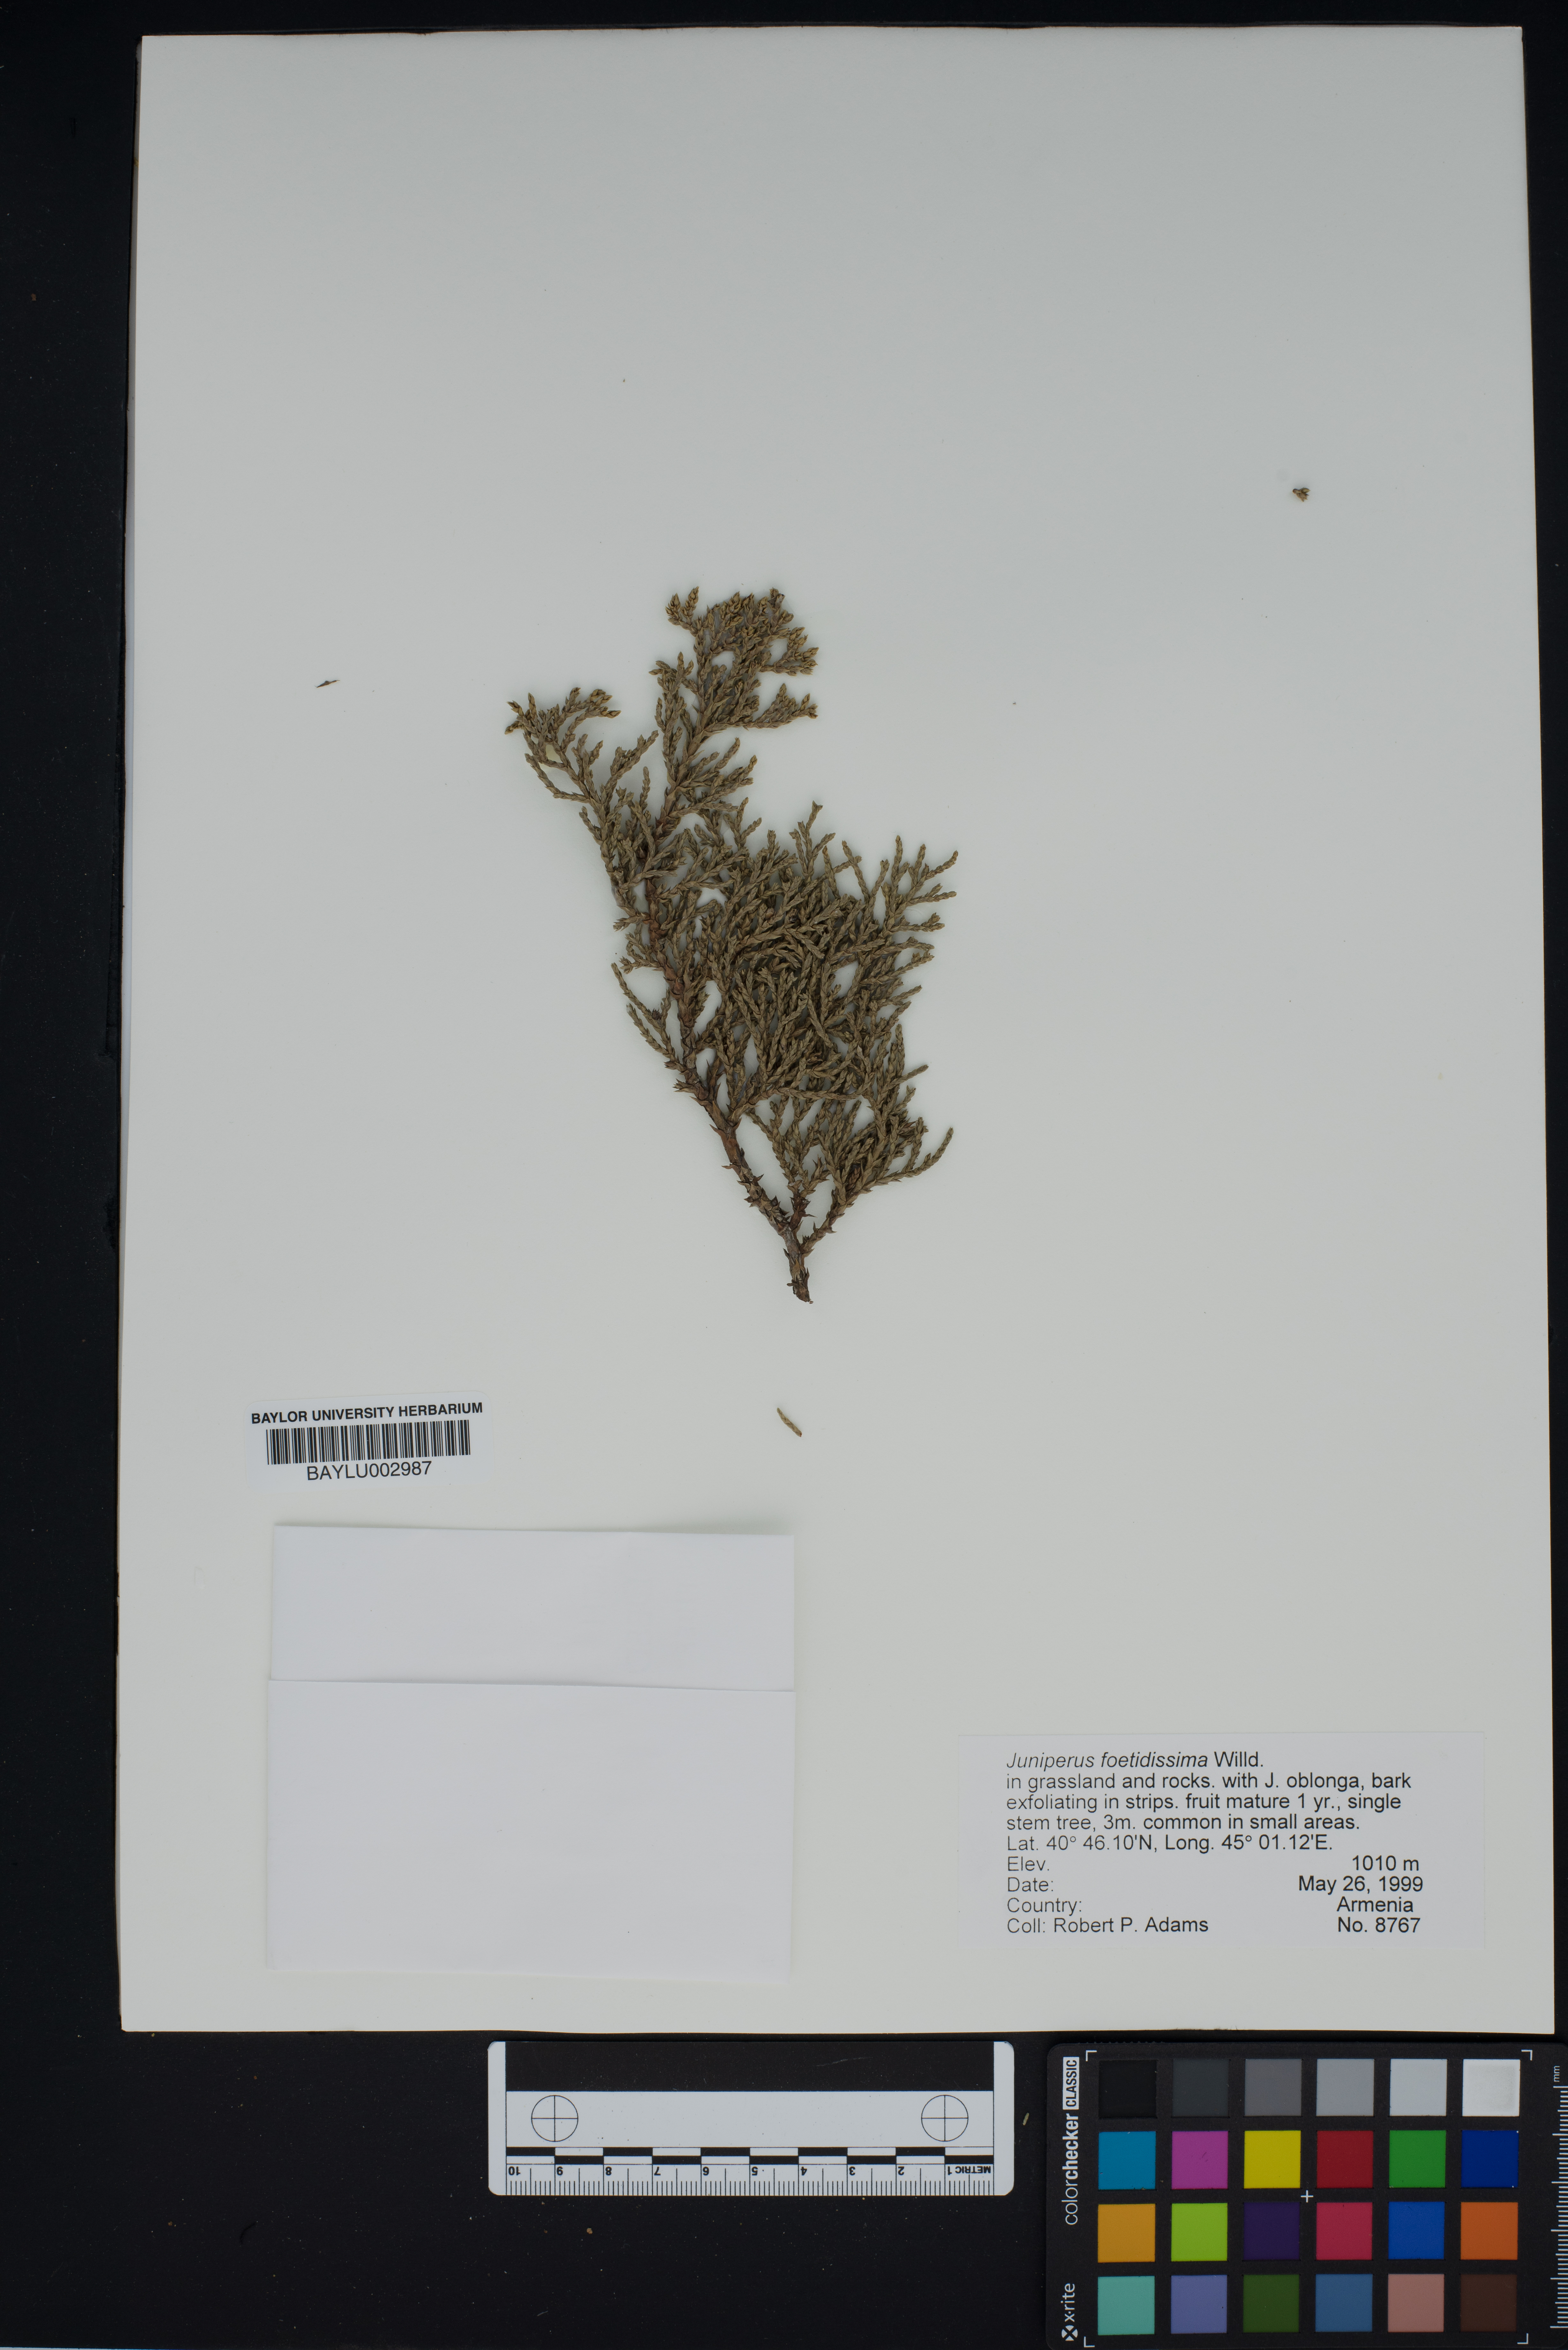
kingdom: Plantae
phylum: Tracheophyta
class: Pinopsida
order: Pinales
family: Cupressaceae
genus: Juniperus
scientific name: Juniperus foetidissima
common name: Stinking juniper
